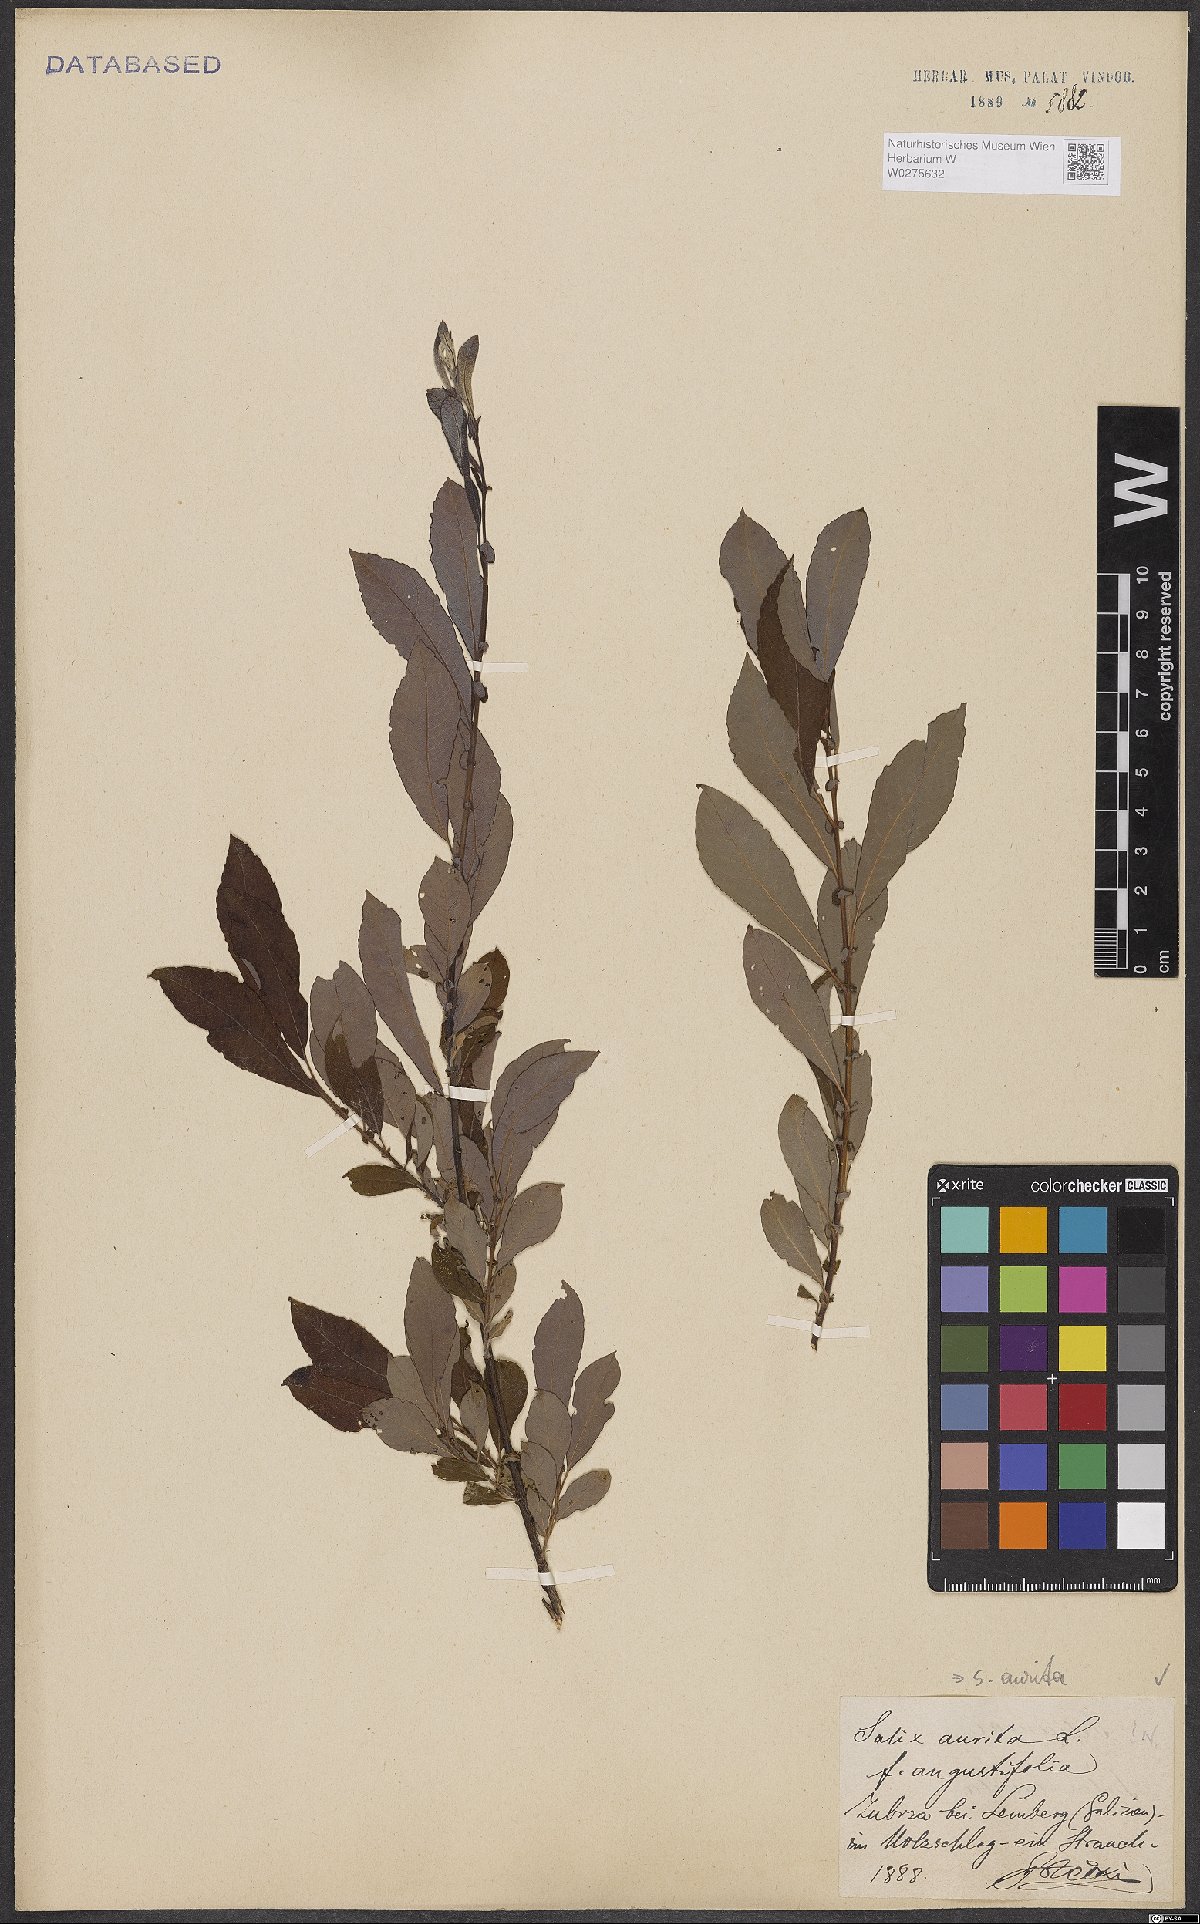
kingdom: Plantae
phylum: Tracheophyta
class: Magnoliopsida
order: Malpighiales
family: Salicaceae
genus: Salix
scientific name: Salix aurita
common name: Eared willow
